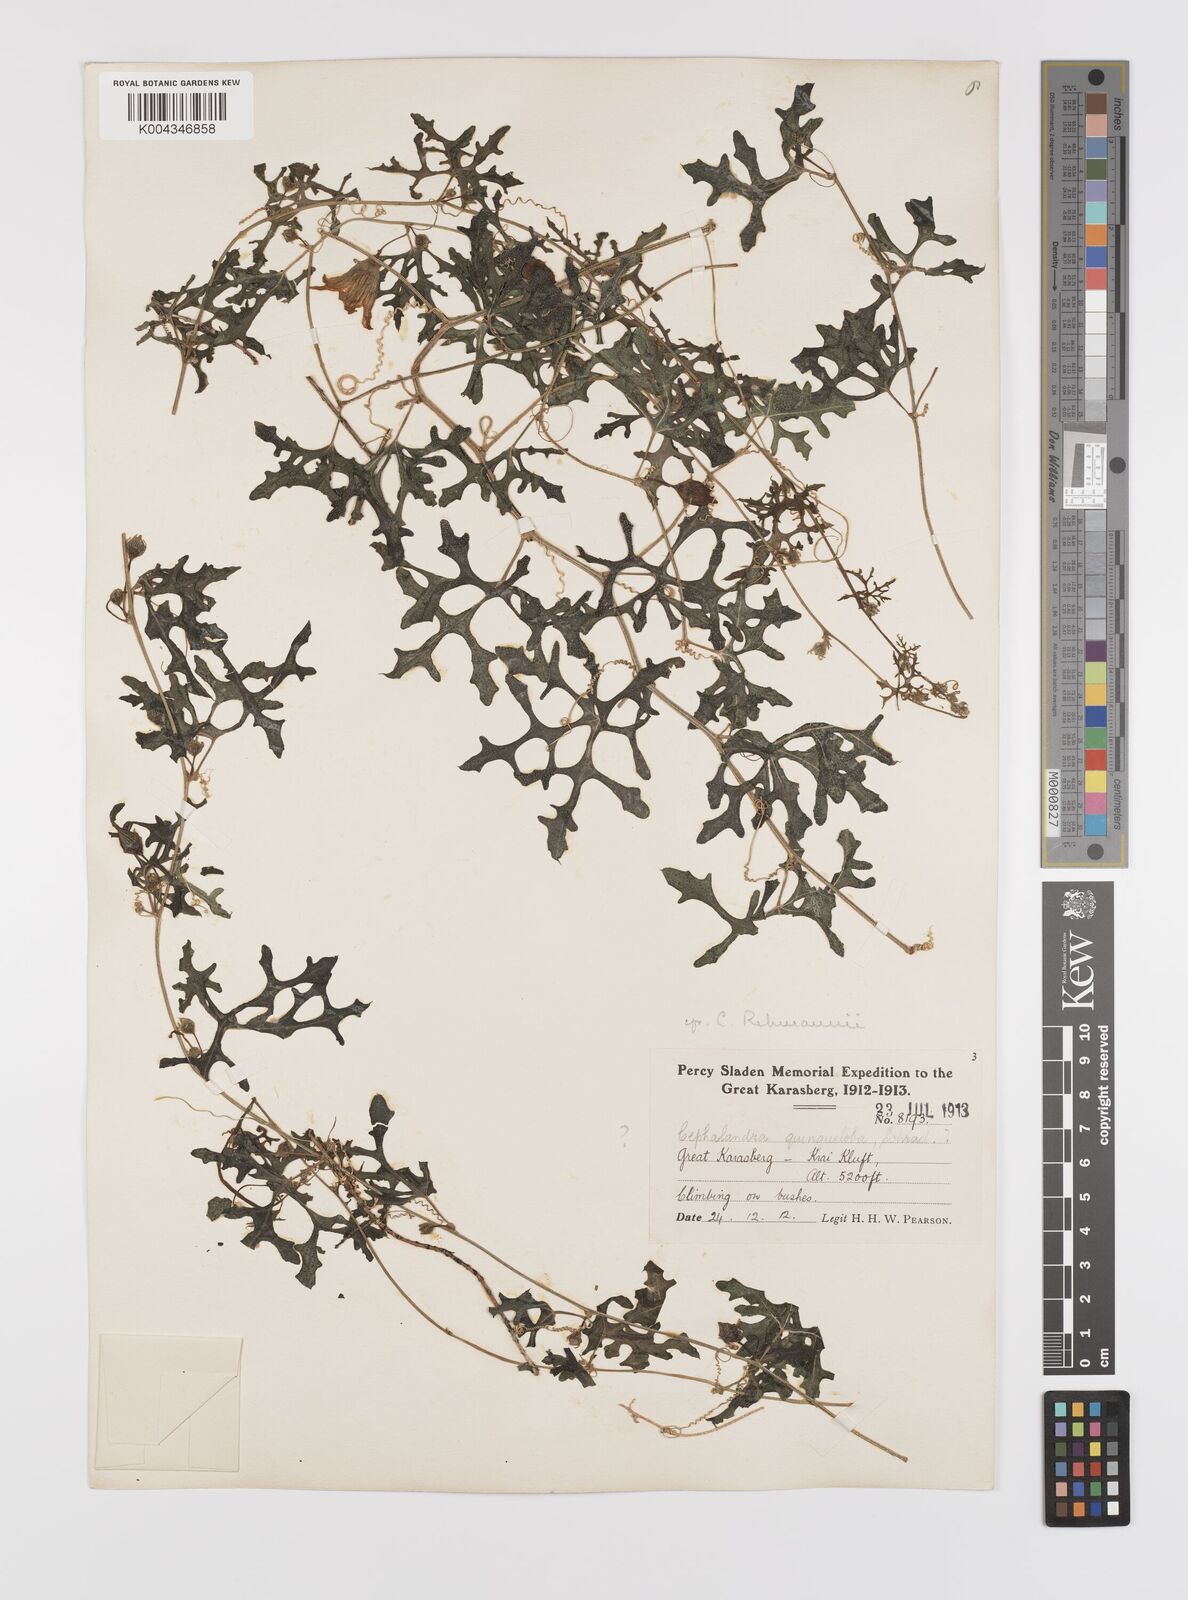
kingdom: Plantae
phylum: Tracheophyta
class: Magnoliopsida
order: Cucurbitales
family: Cucurbitaceae
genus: Coccinia
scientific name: Coccinia rehmannii
